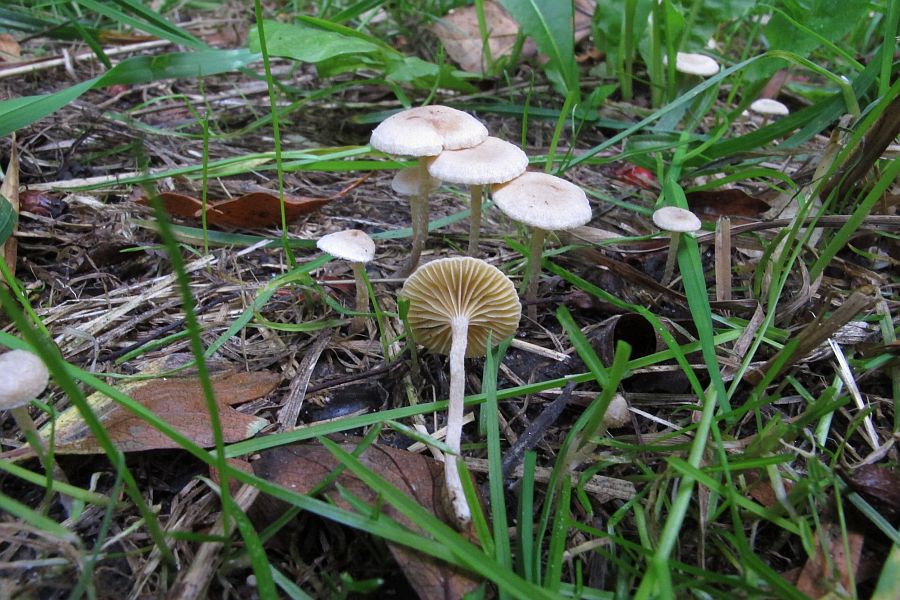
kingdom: Fungi
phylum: Basidiomycota
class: Agaricomycetes
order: Agaricales
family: Tubariaceae
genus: Tubaria
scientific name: Tubaria dispersa
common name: tjørne-fnughat
